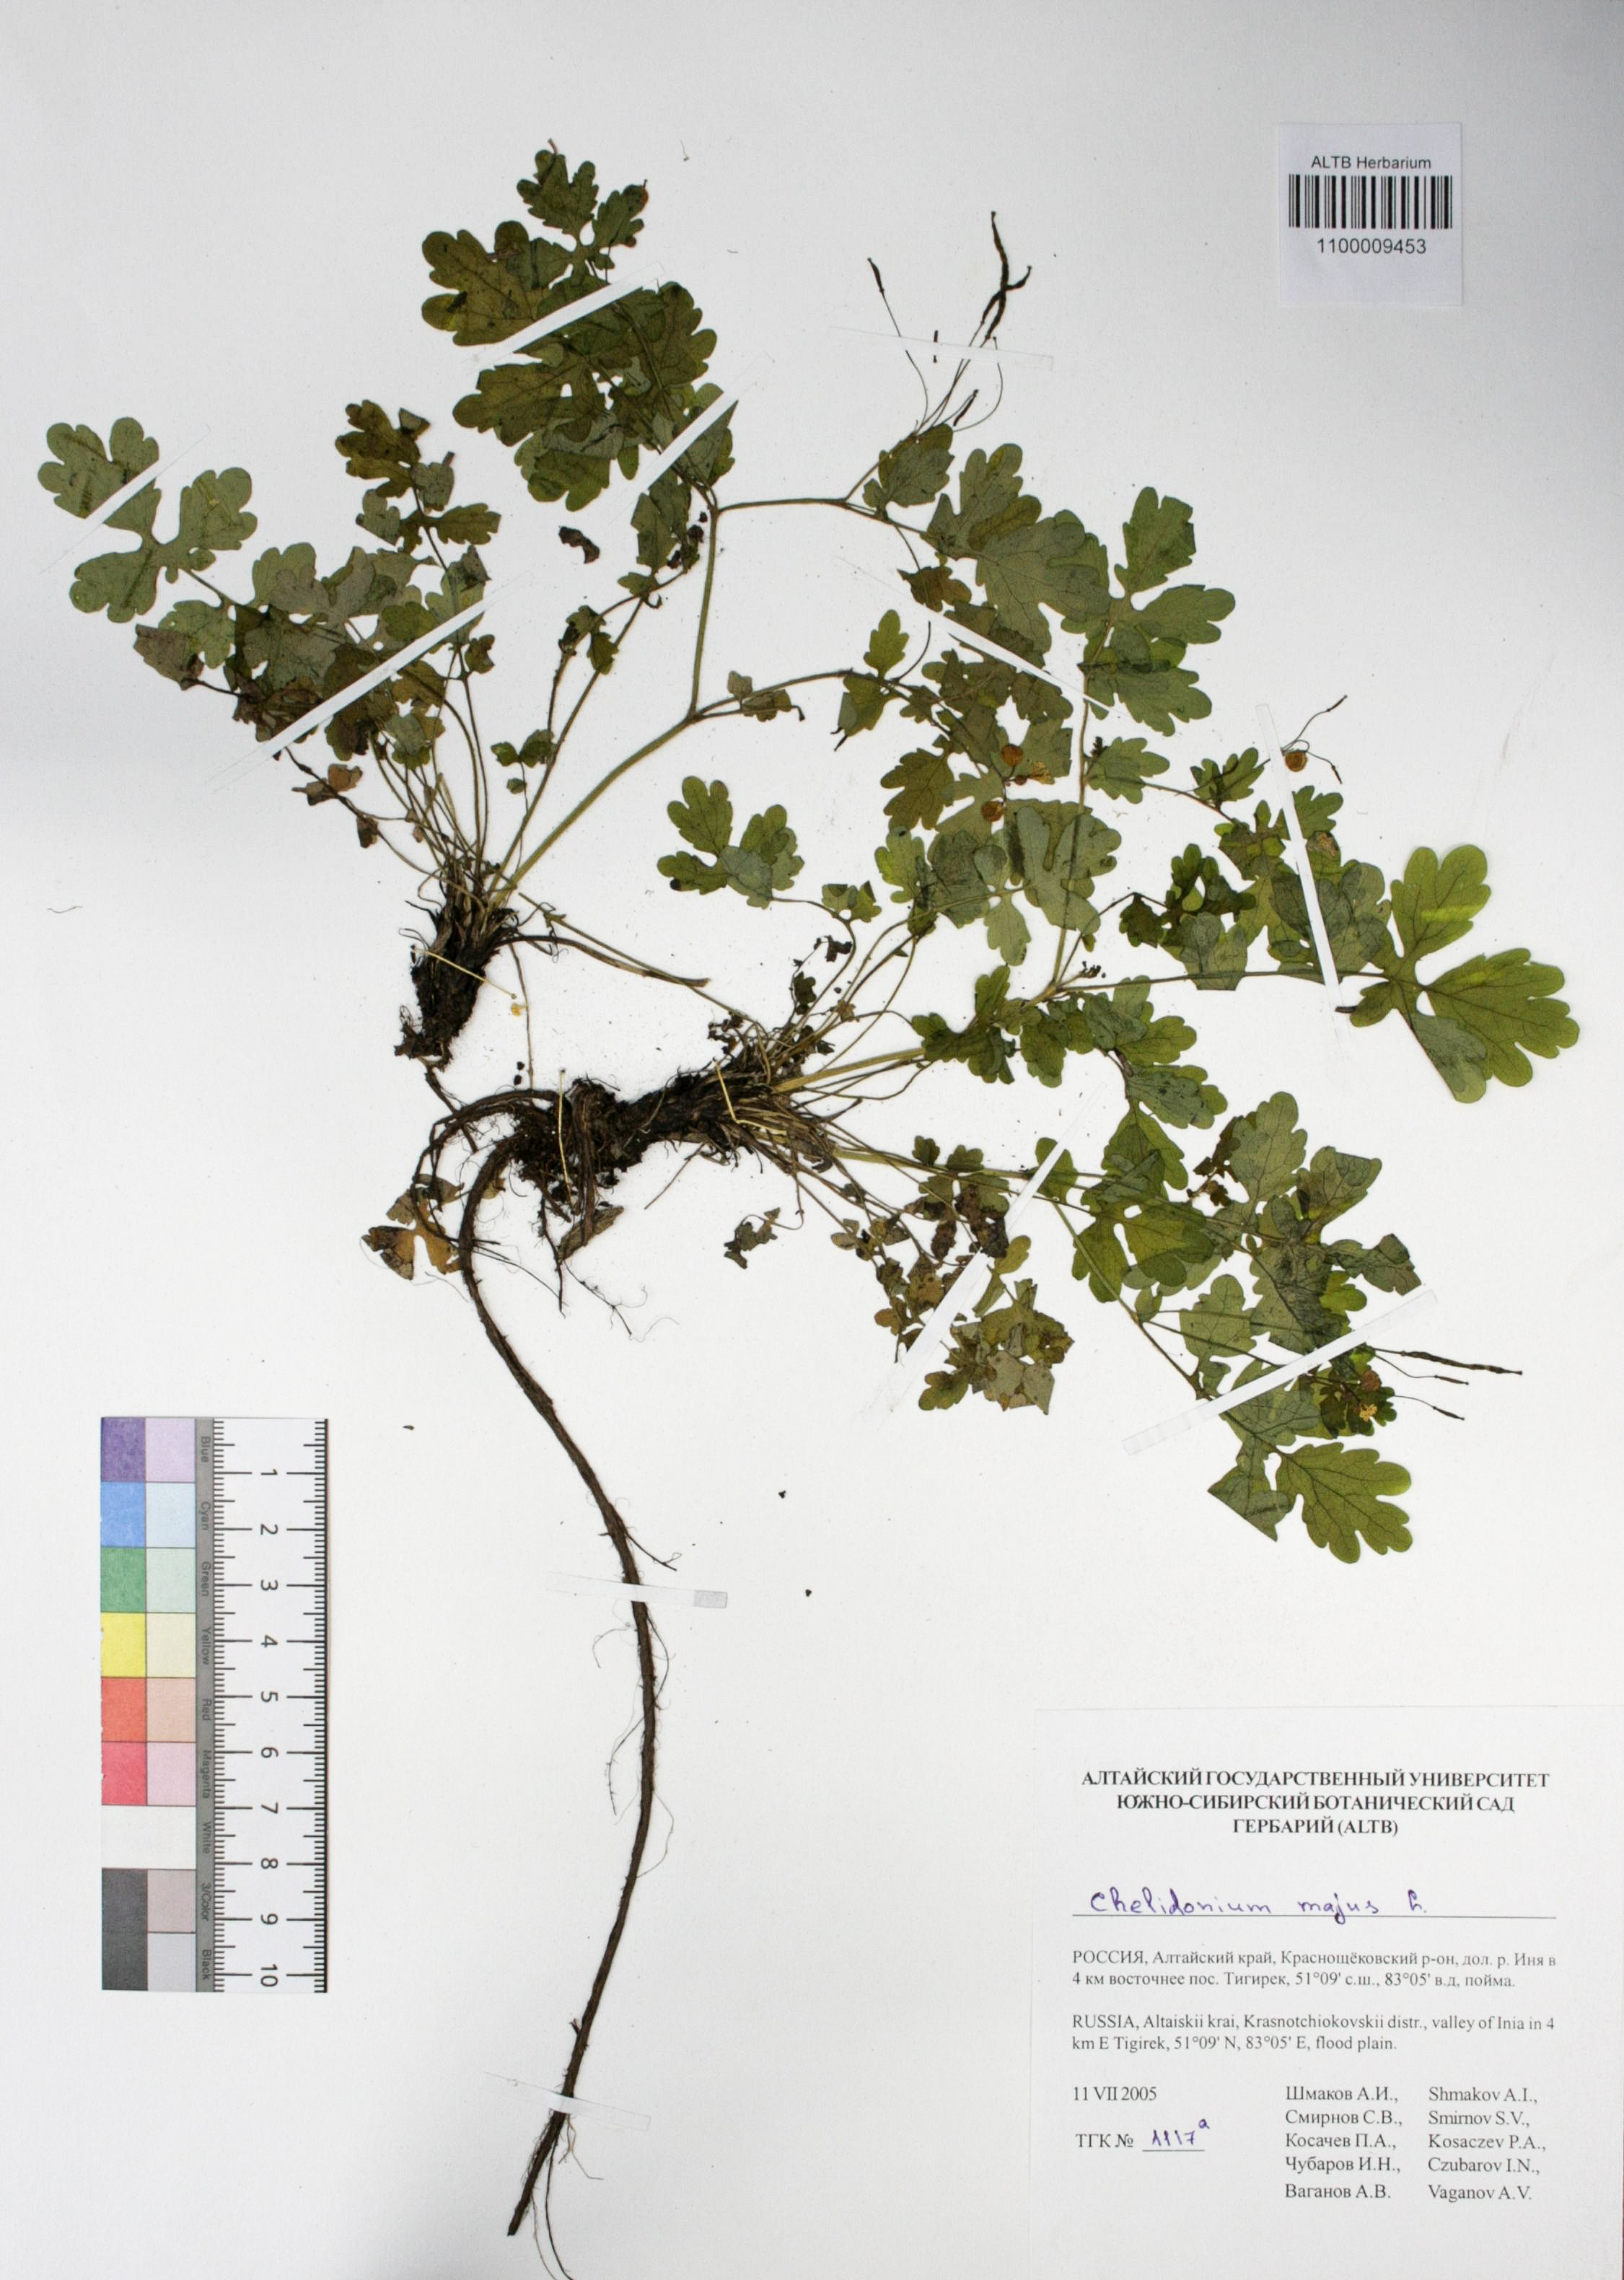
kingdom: Plantae
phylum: Tracheophyta
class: Magnoliopsida
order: Ranunculales
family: Papaveraceae
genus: Chelidonium
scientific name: Chelidonium majus
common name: Greater celandine
